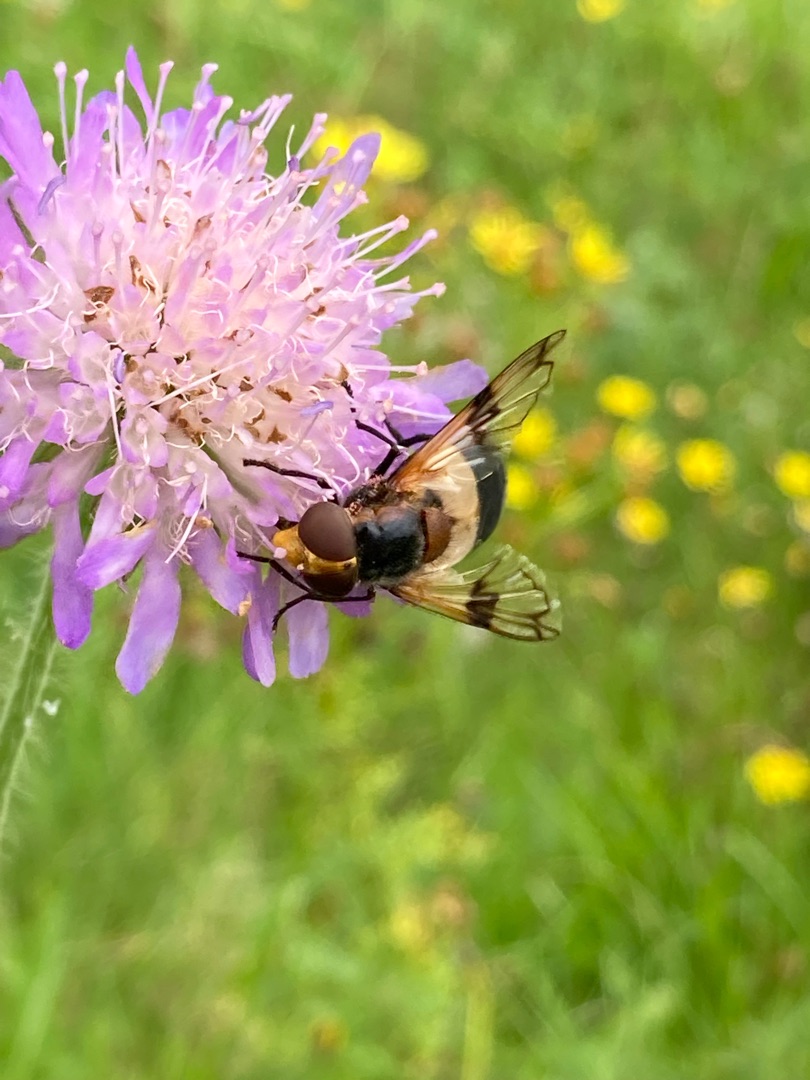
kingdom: Animalia
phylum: Arthropoda
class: Insecta
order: Diptera
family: Syrphidae
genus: Volucella
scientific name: Volucella pellucens
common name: Hvidbåndet humlesvirreflue
